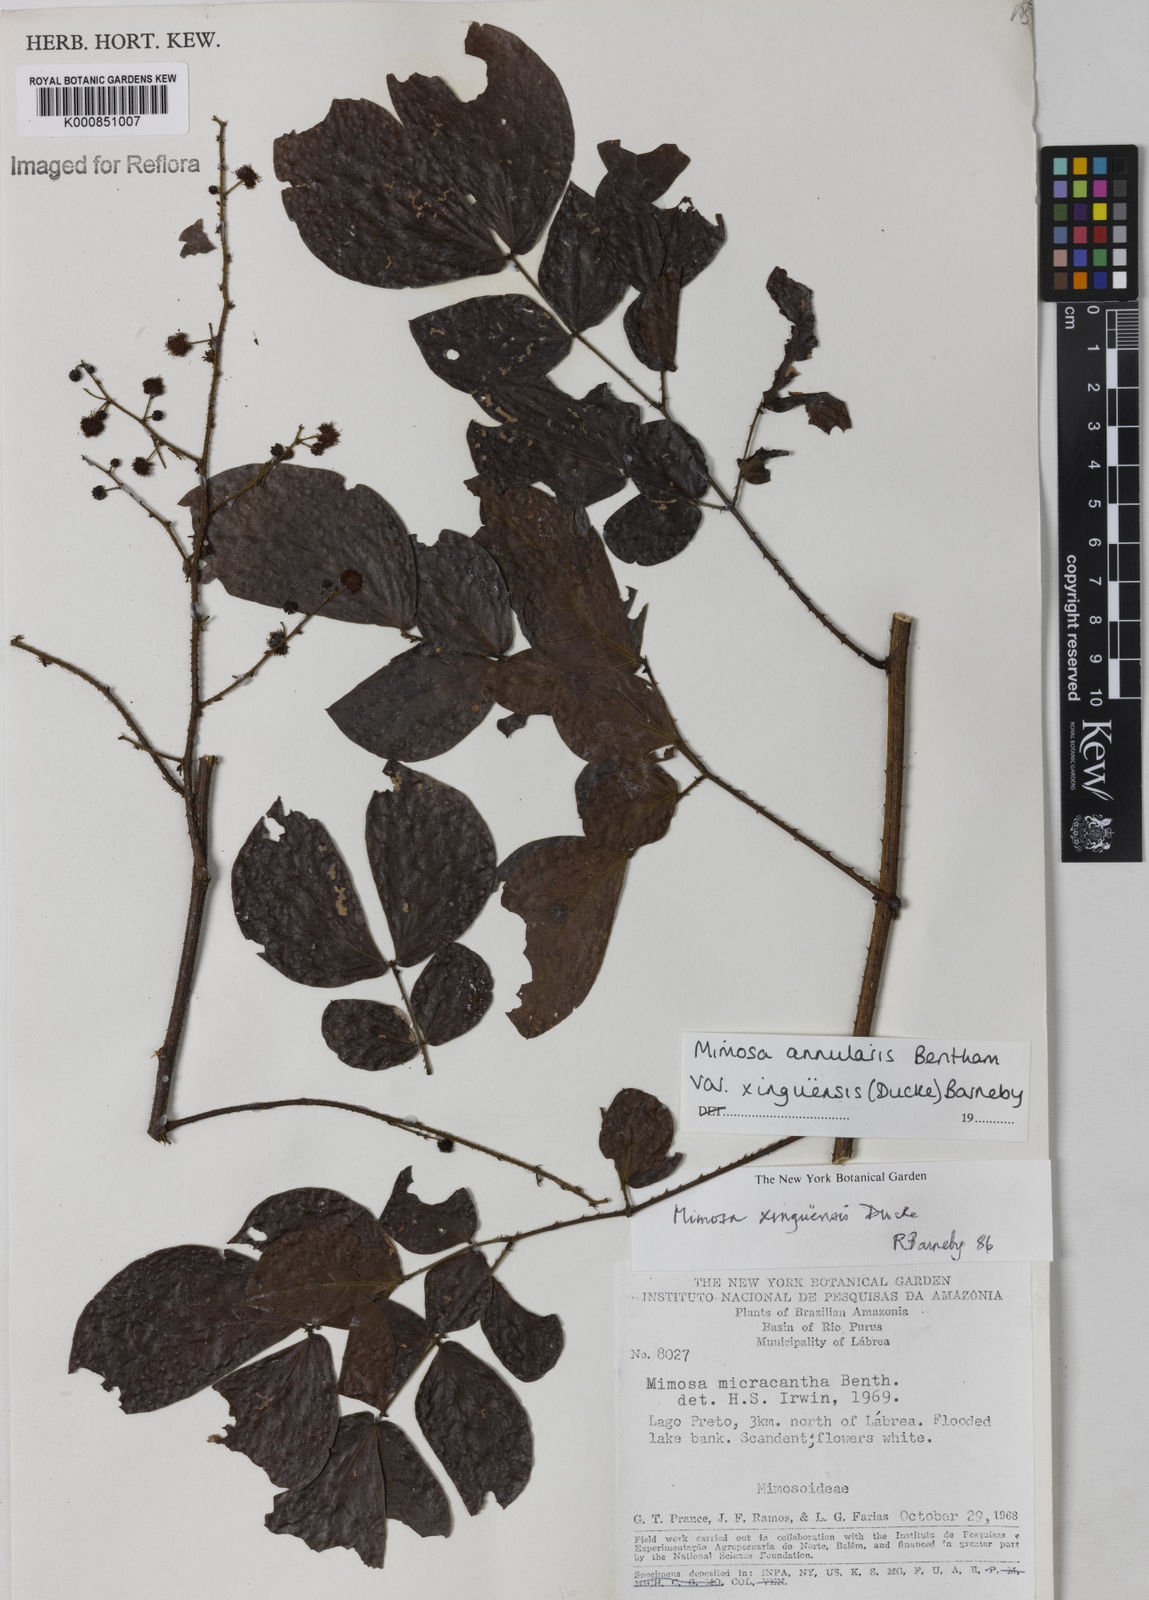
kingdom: Plantae
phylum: Tracheophyta
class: Magnoliopsida
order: Fabales
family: Fabaceae
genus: Mimosa
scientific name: Mimosa annularis
